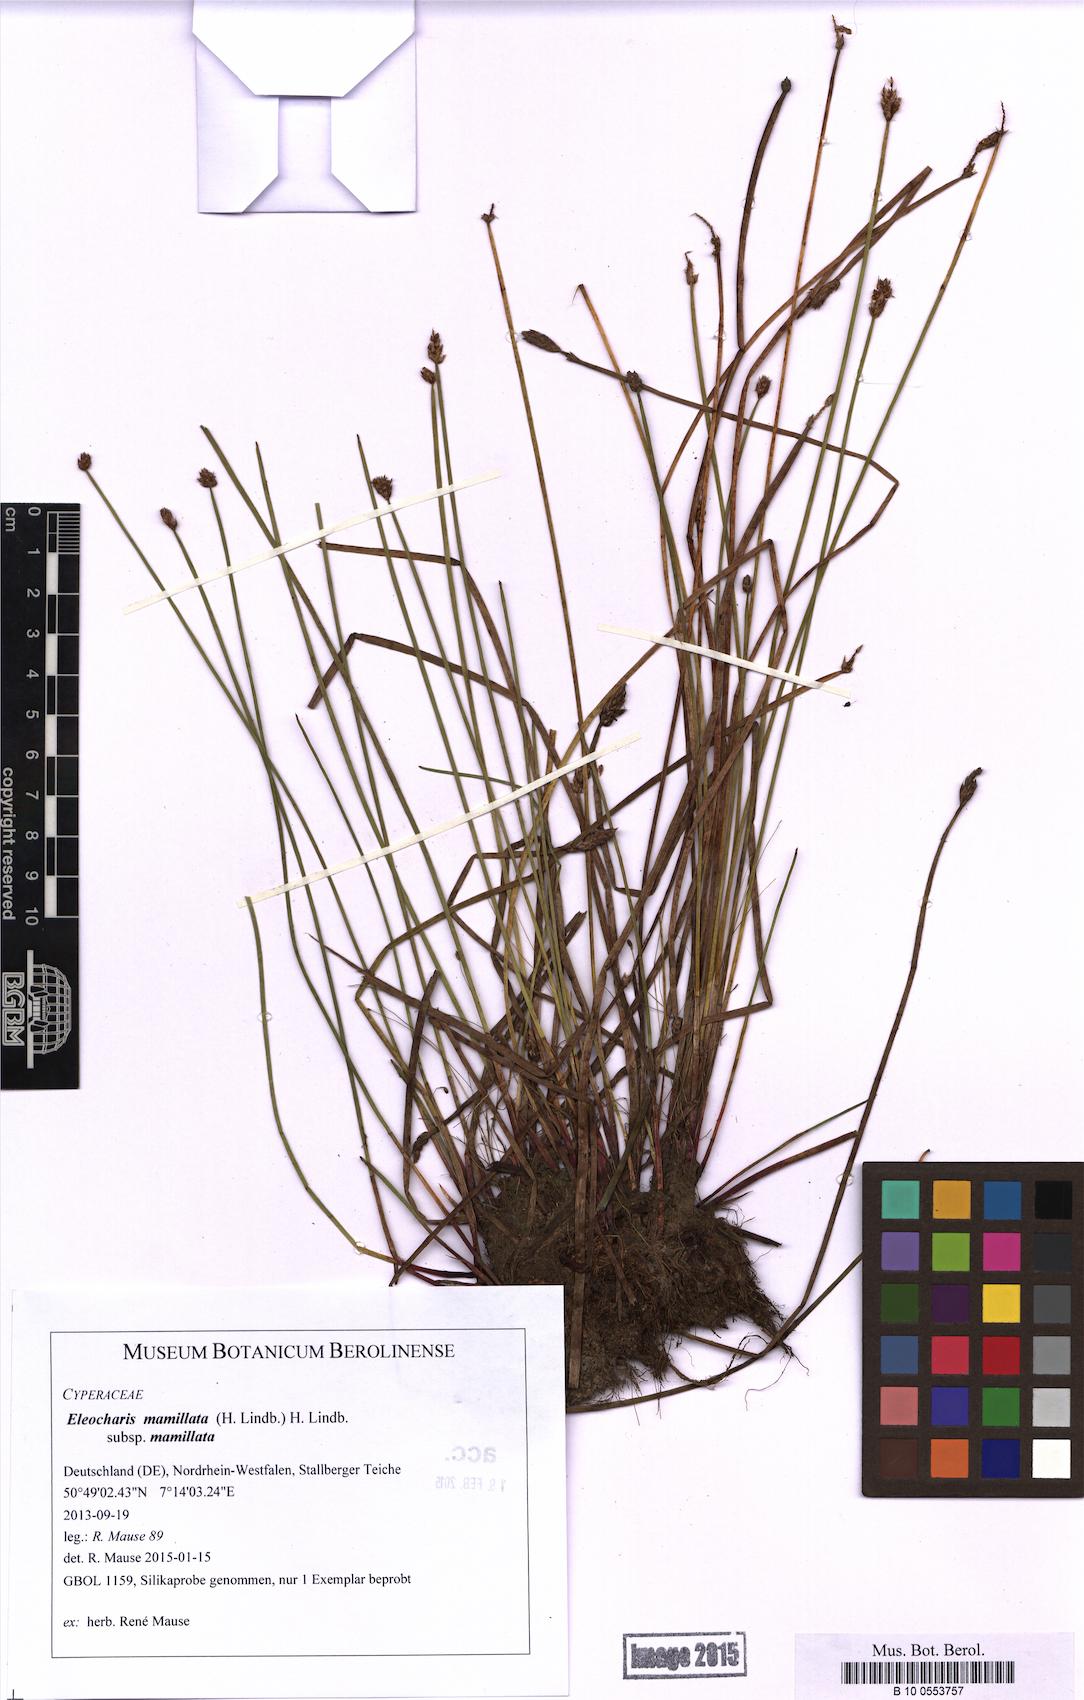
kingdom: Plantae
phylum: Tracheophyta
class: Liliopsida
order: Poales
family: Cyperaceae
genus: Eleocharis
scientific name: Eleocharis mamillata
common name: Northern spike-rush
